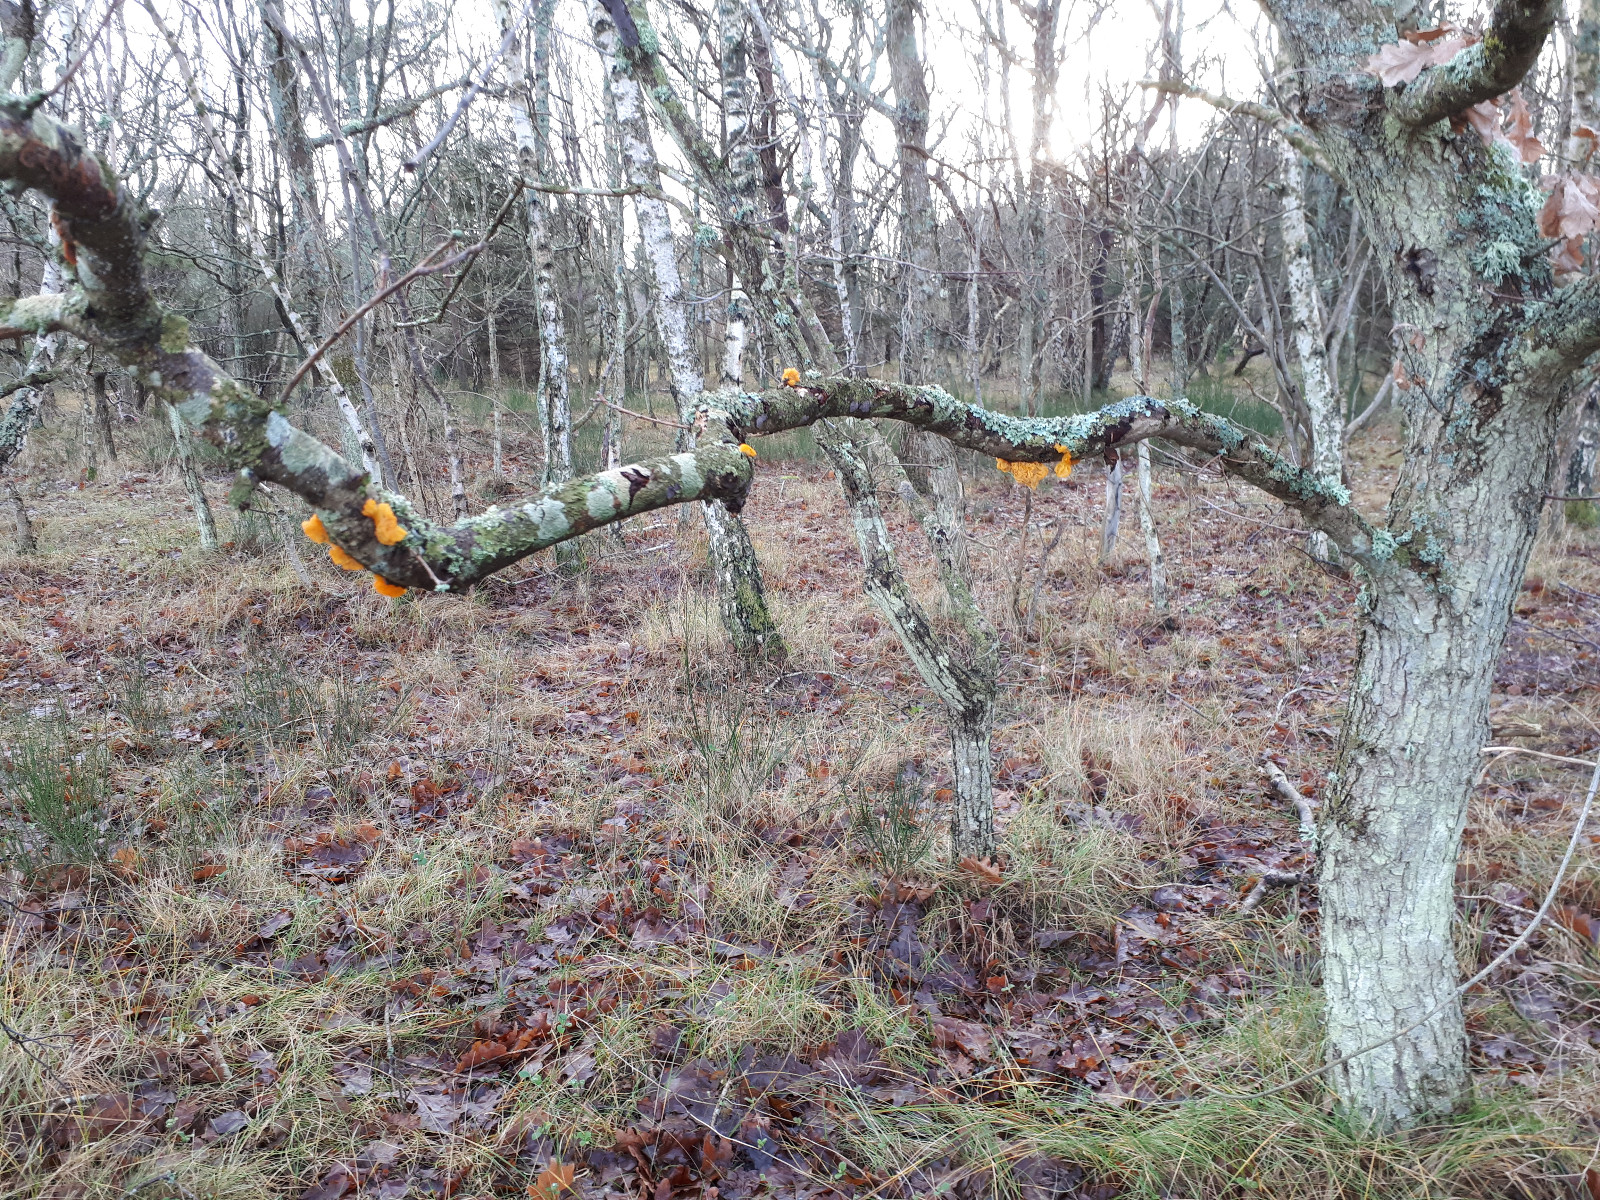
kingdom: Fungi
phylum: Basidiomycota
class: Tremellomycetes
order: Tremellales
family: Tremellaceae
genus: Tremella
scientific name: Tremella mesenterica
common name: gul bævresvamp
